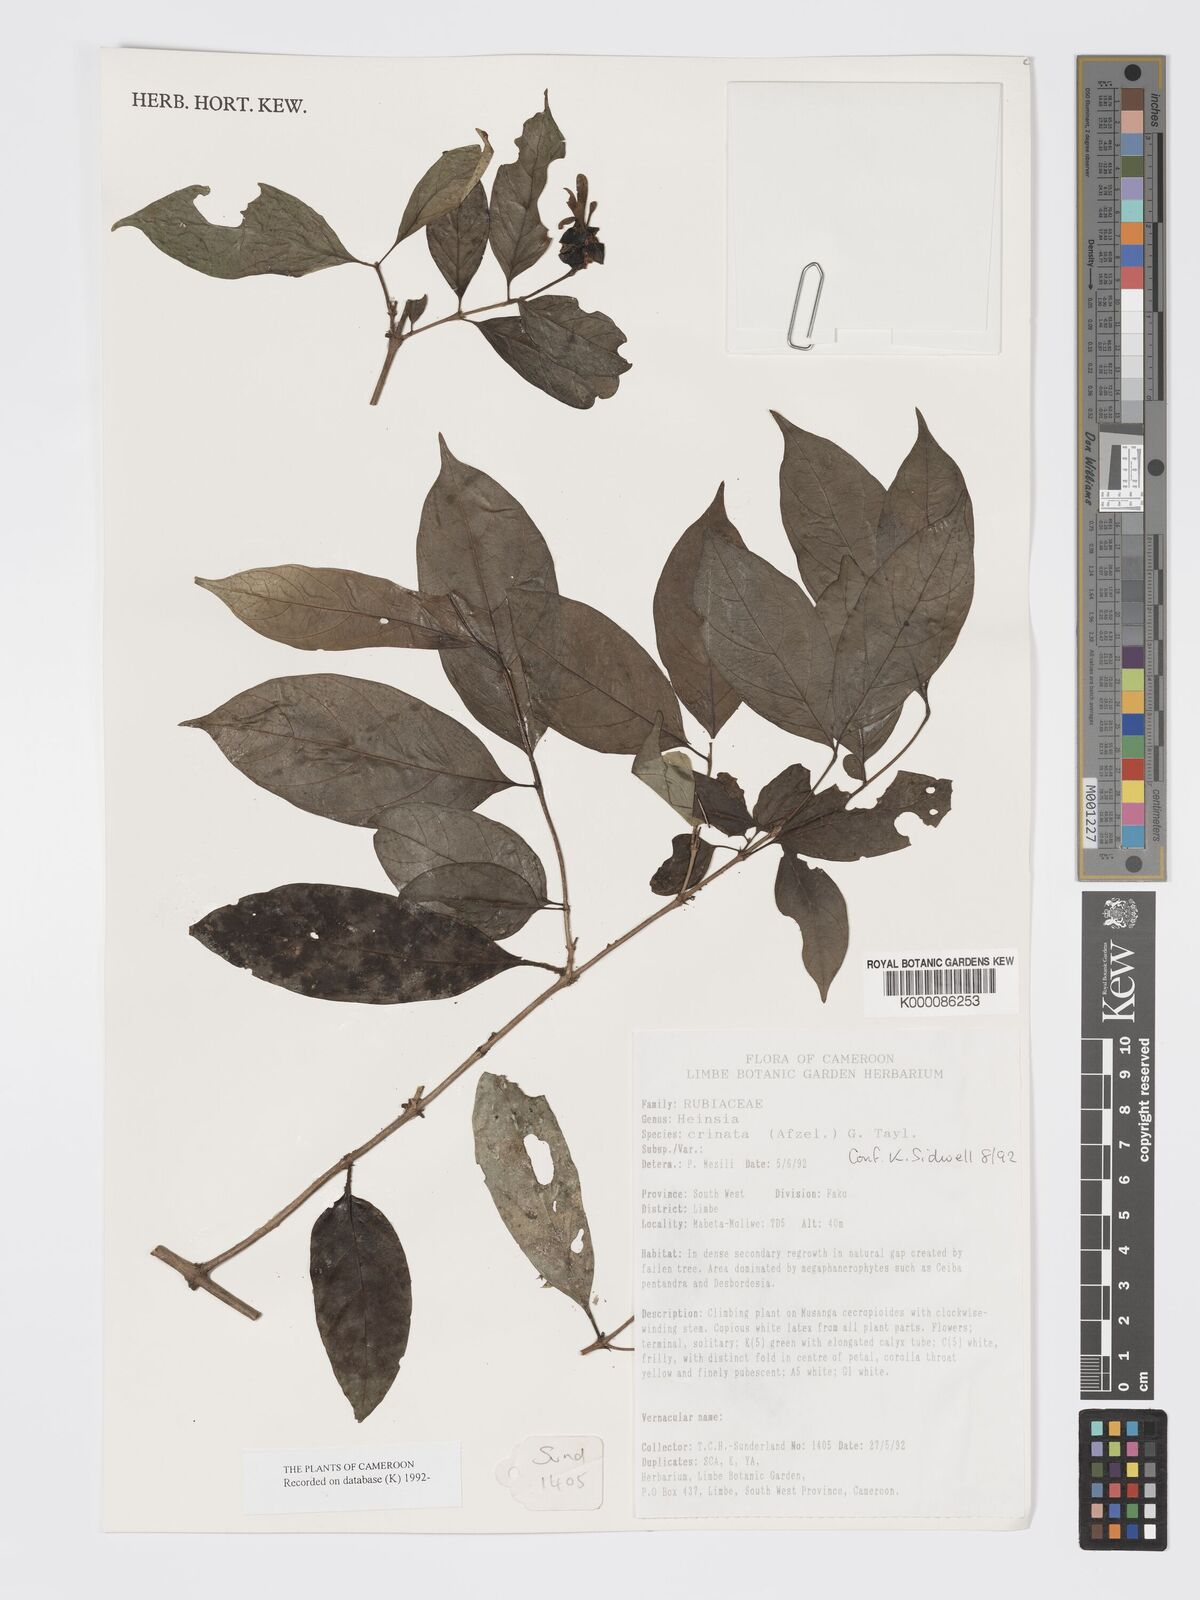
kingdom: Plantae
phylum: Tracheophyta
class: Magnoliopsida
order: Gentianales
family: Rubiaceae
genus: Heinsia
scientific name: Heinsia crinita
